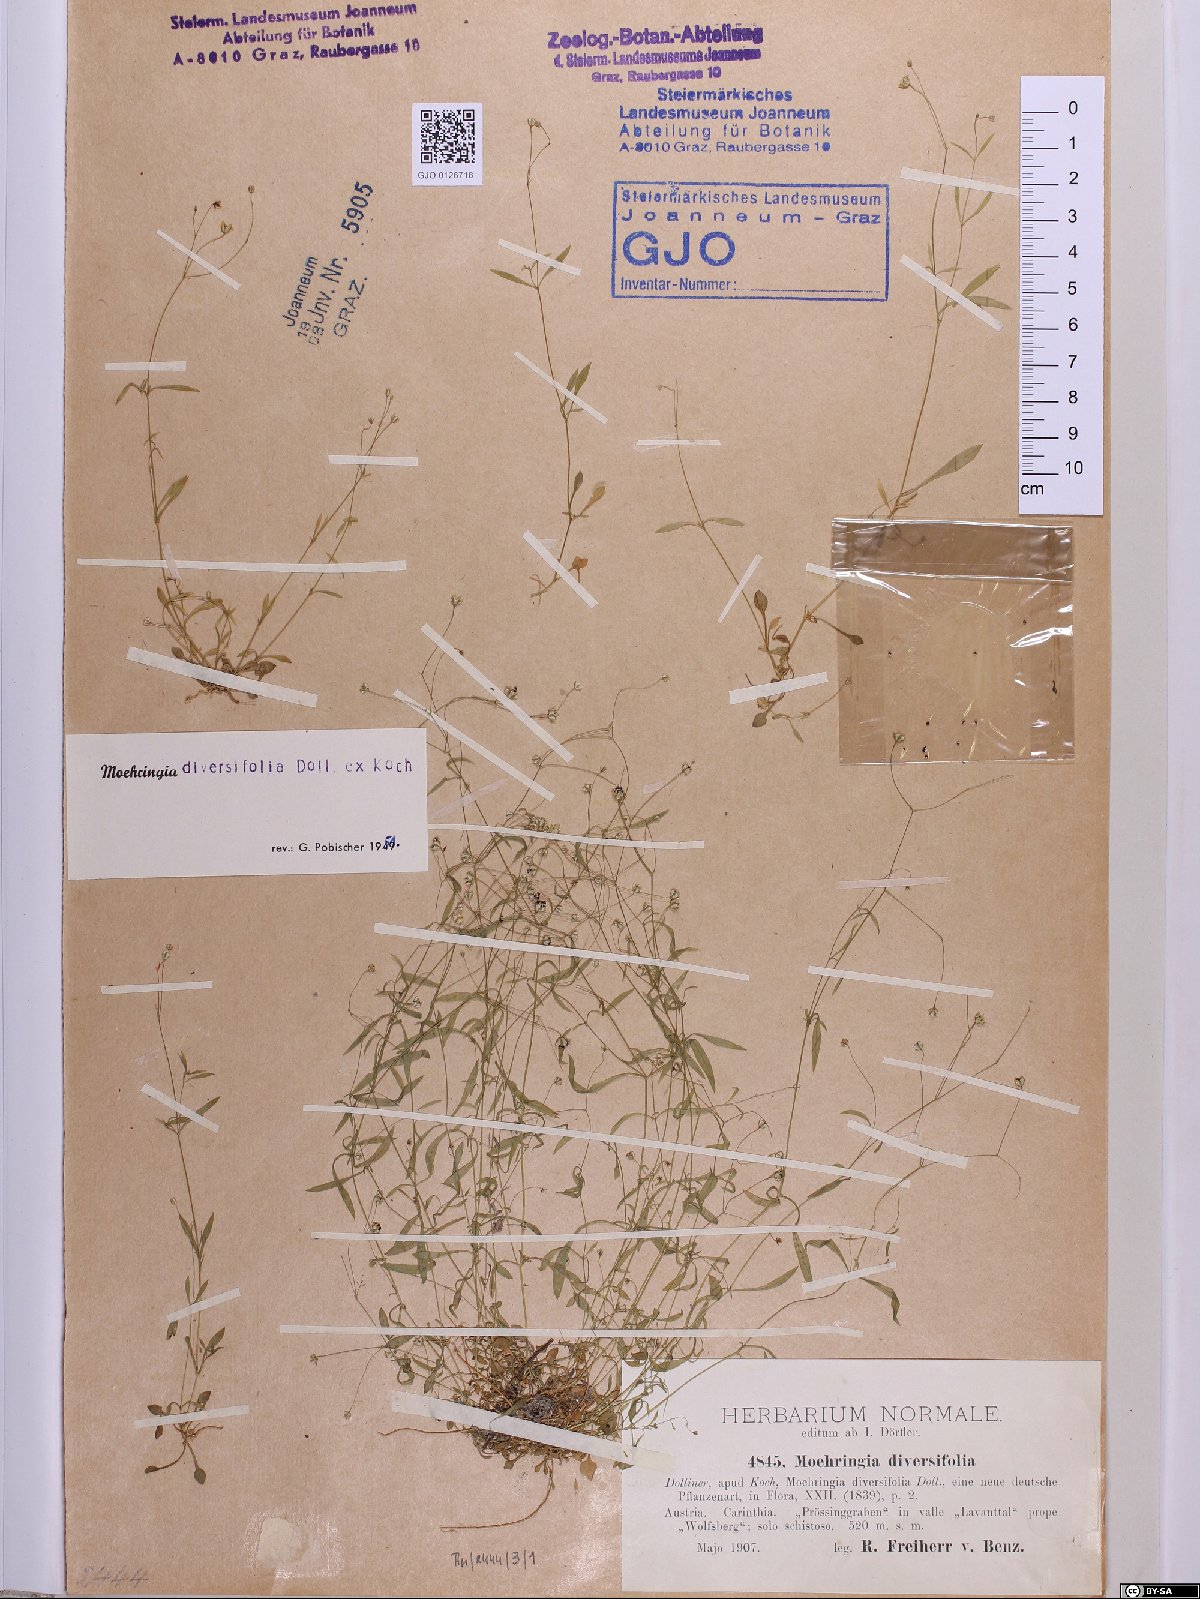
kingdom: Plantae
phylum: Tracheophyta
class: Magnoliopsida
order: Caryophyllales
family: Caryophyllaceae
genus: Moehringia
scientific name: Moehringia diversifolia
